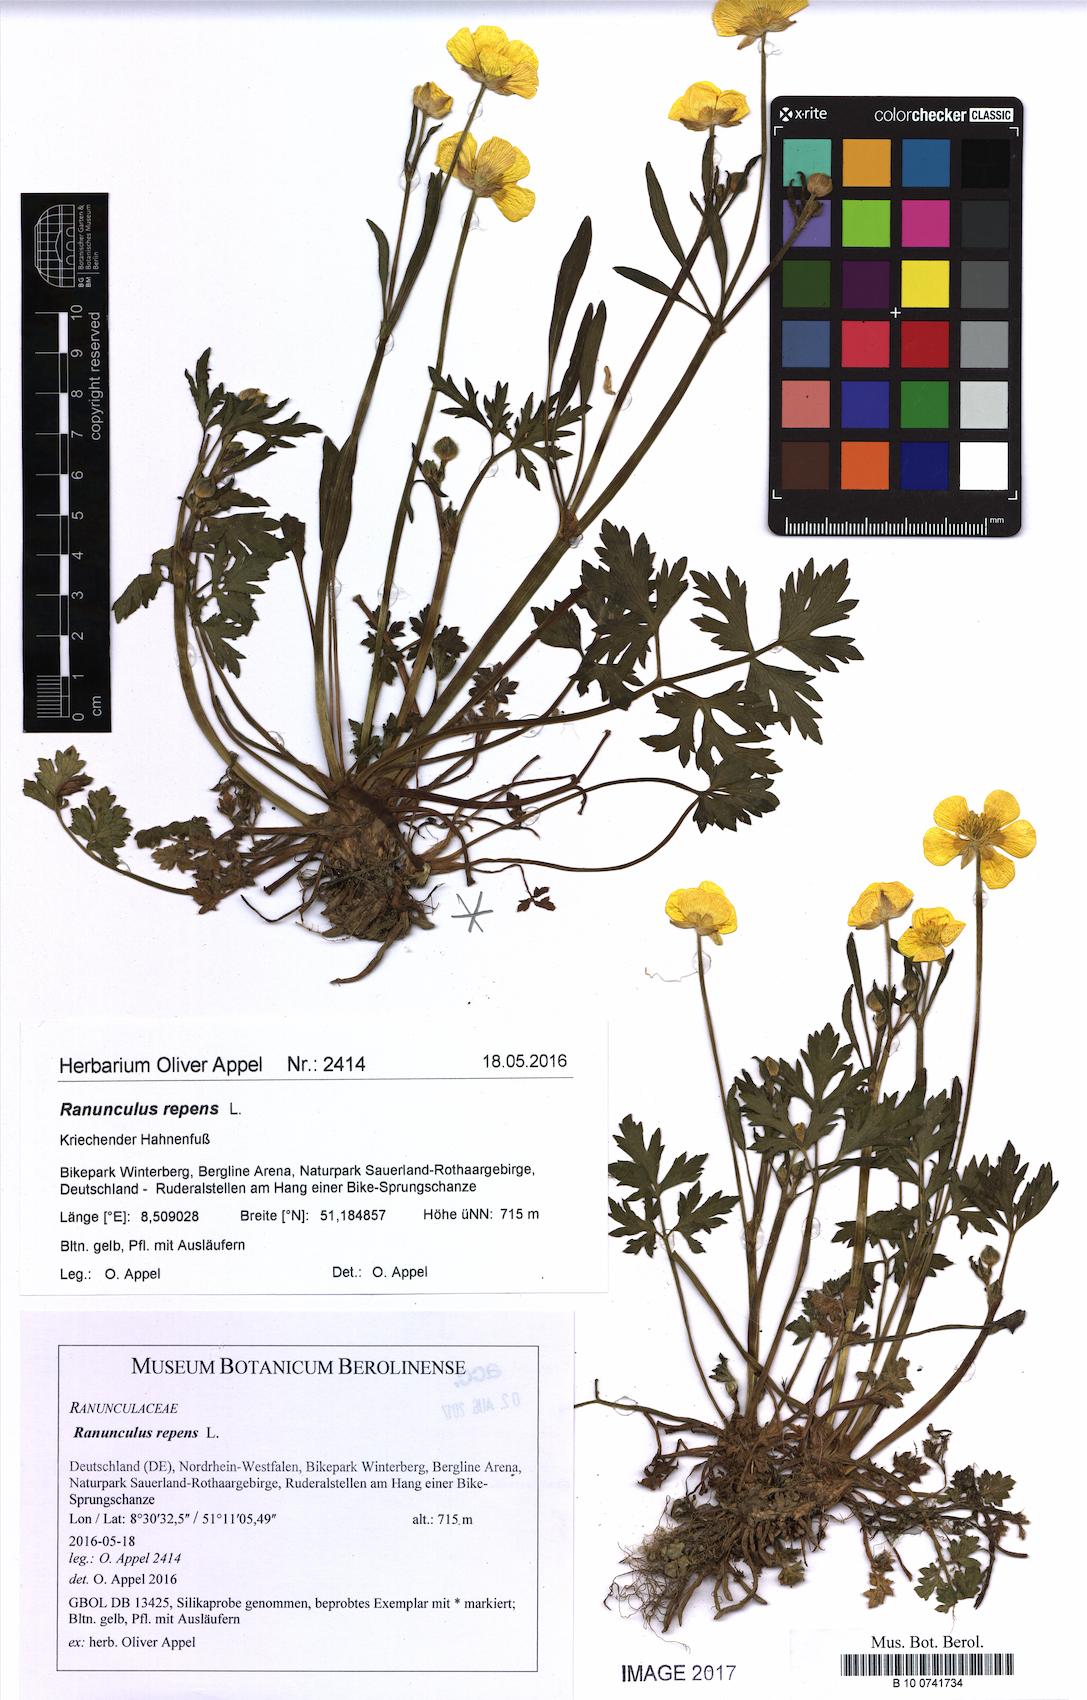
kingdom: Plantae
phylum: Tracheophyta
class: Magnoliopsida
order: Ranunculales
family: Ranunculaceae
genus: Ranunculus
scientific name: Ranunculus repens
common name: Creeping buttercup
